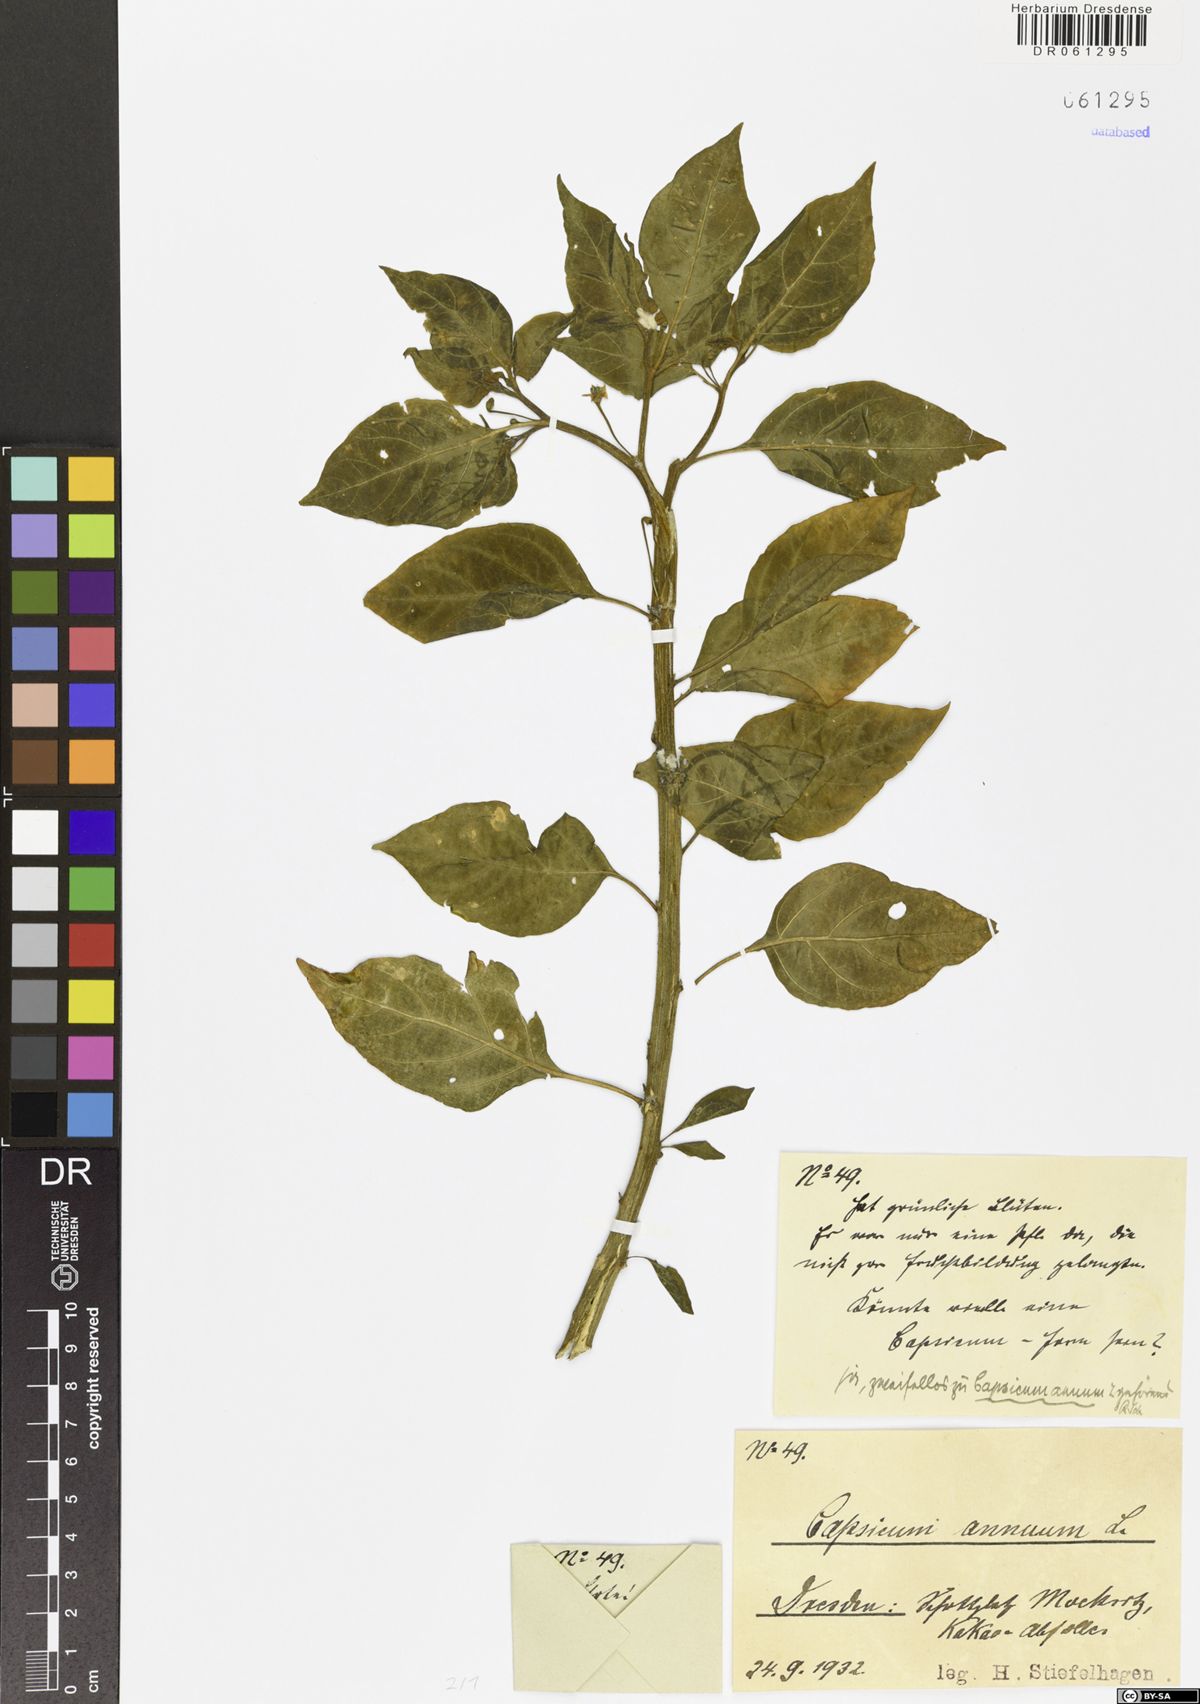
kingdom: Plantae
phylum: Tracheophyta
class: Magnoliopsida
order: Solanales
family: Solanaceae
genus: Capsicum
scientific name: Capsicum annuum
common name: Sweet pepper
